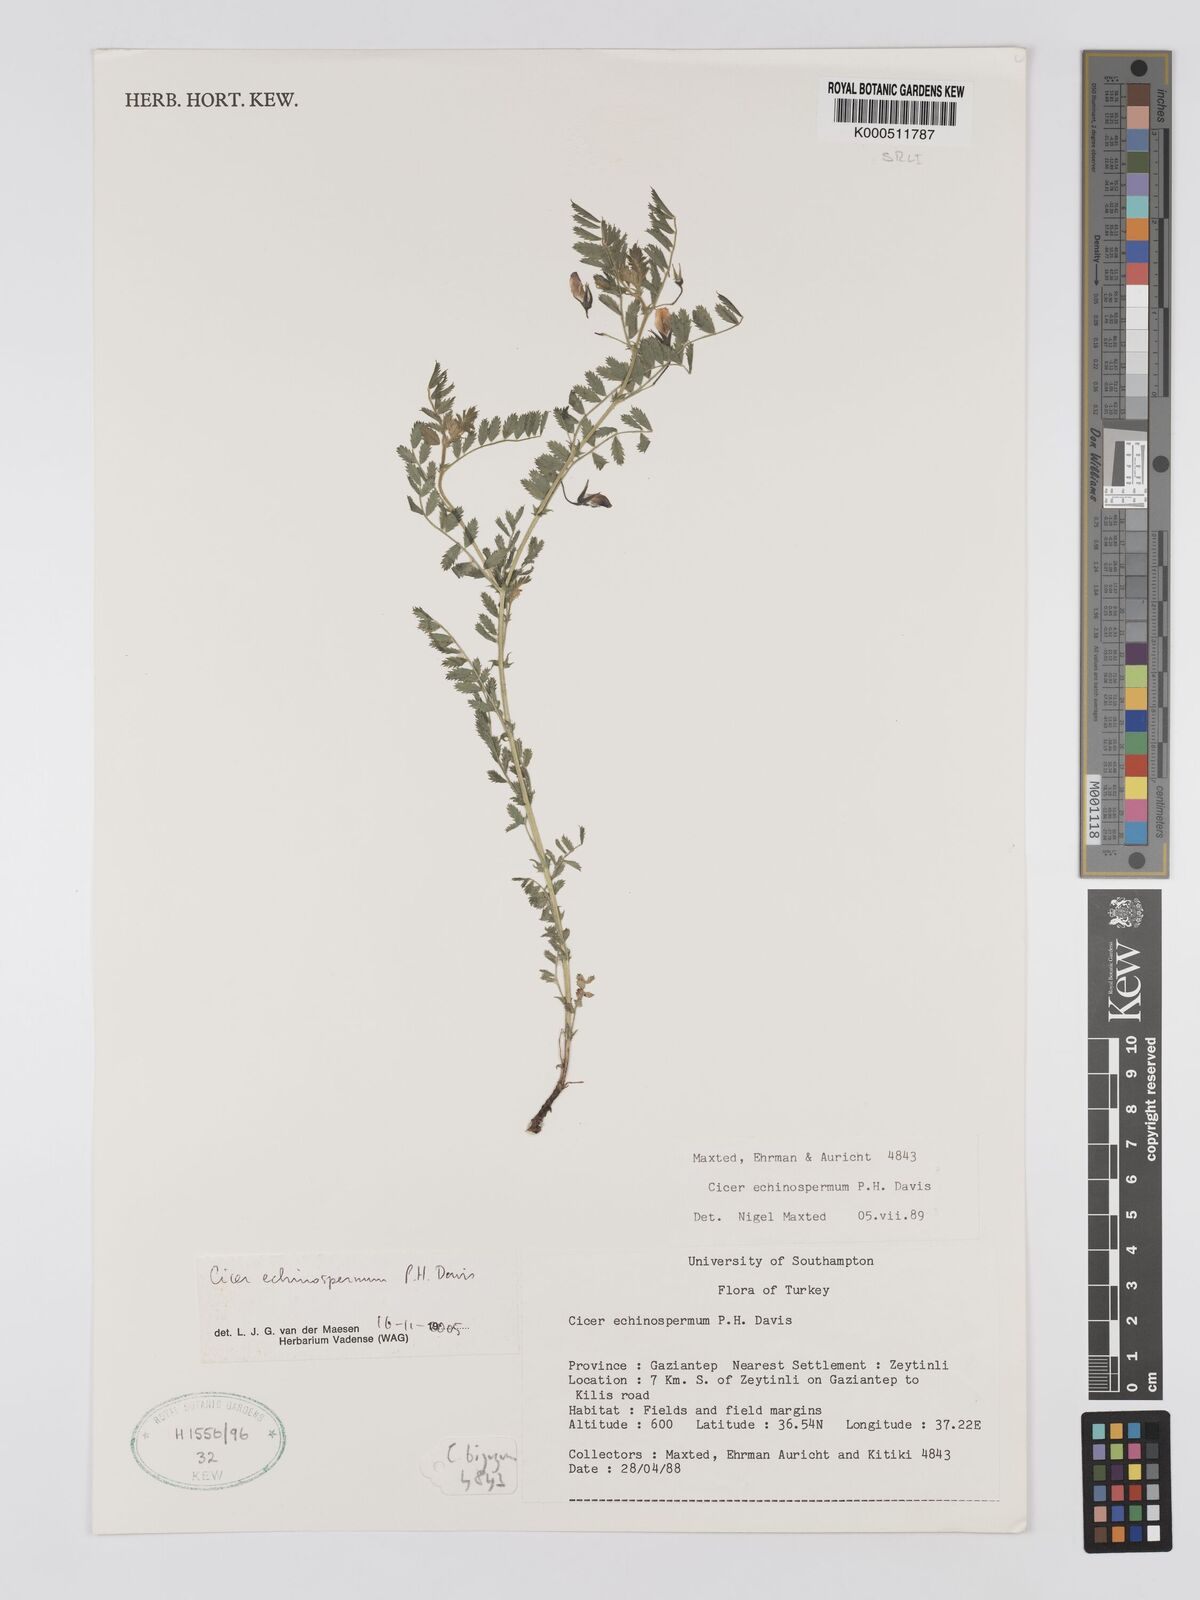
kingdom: Plantae
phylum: Tracheophyta
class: Magnoliopsida
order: Fabales
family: Fabaceae
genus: Cicer
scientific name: Cicer echinospermum
